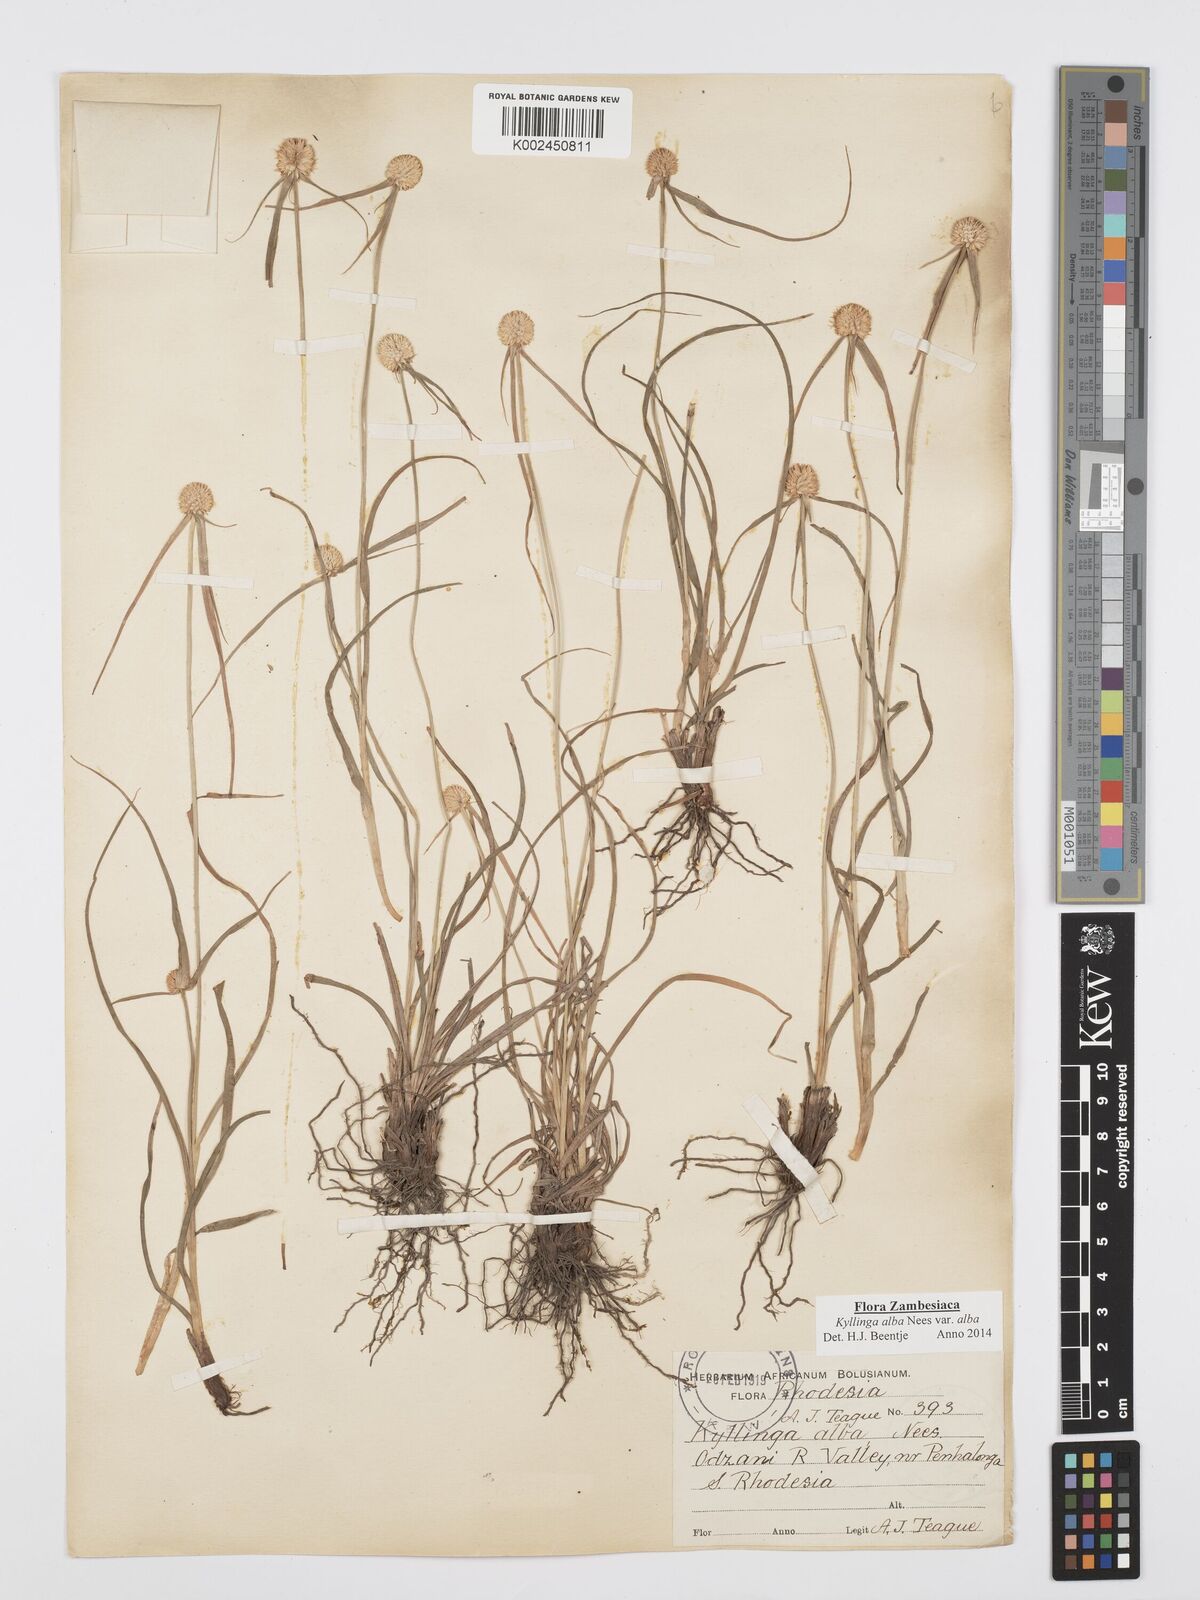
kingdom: Plantae
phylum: Tracheophyta
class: Liliopsida
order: Poales
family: Cyperaceae
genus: Cyperus
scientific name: Cyperus
